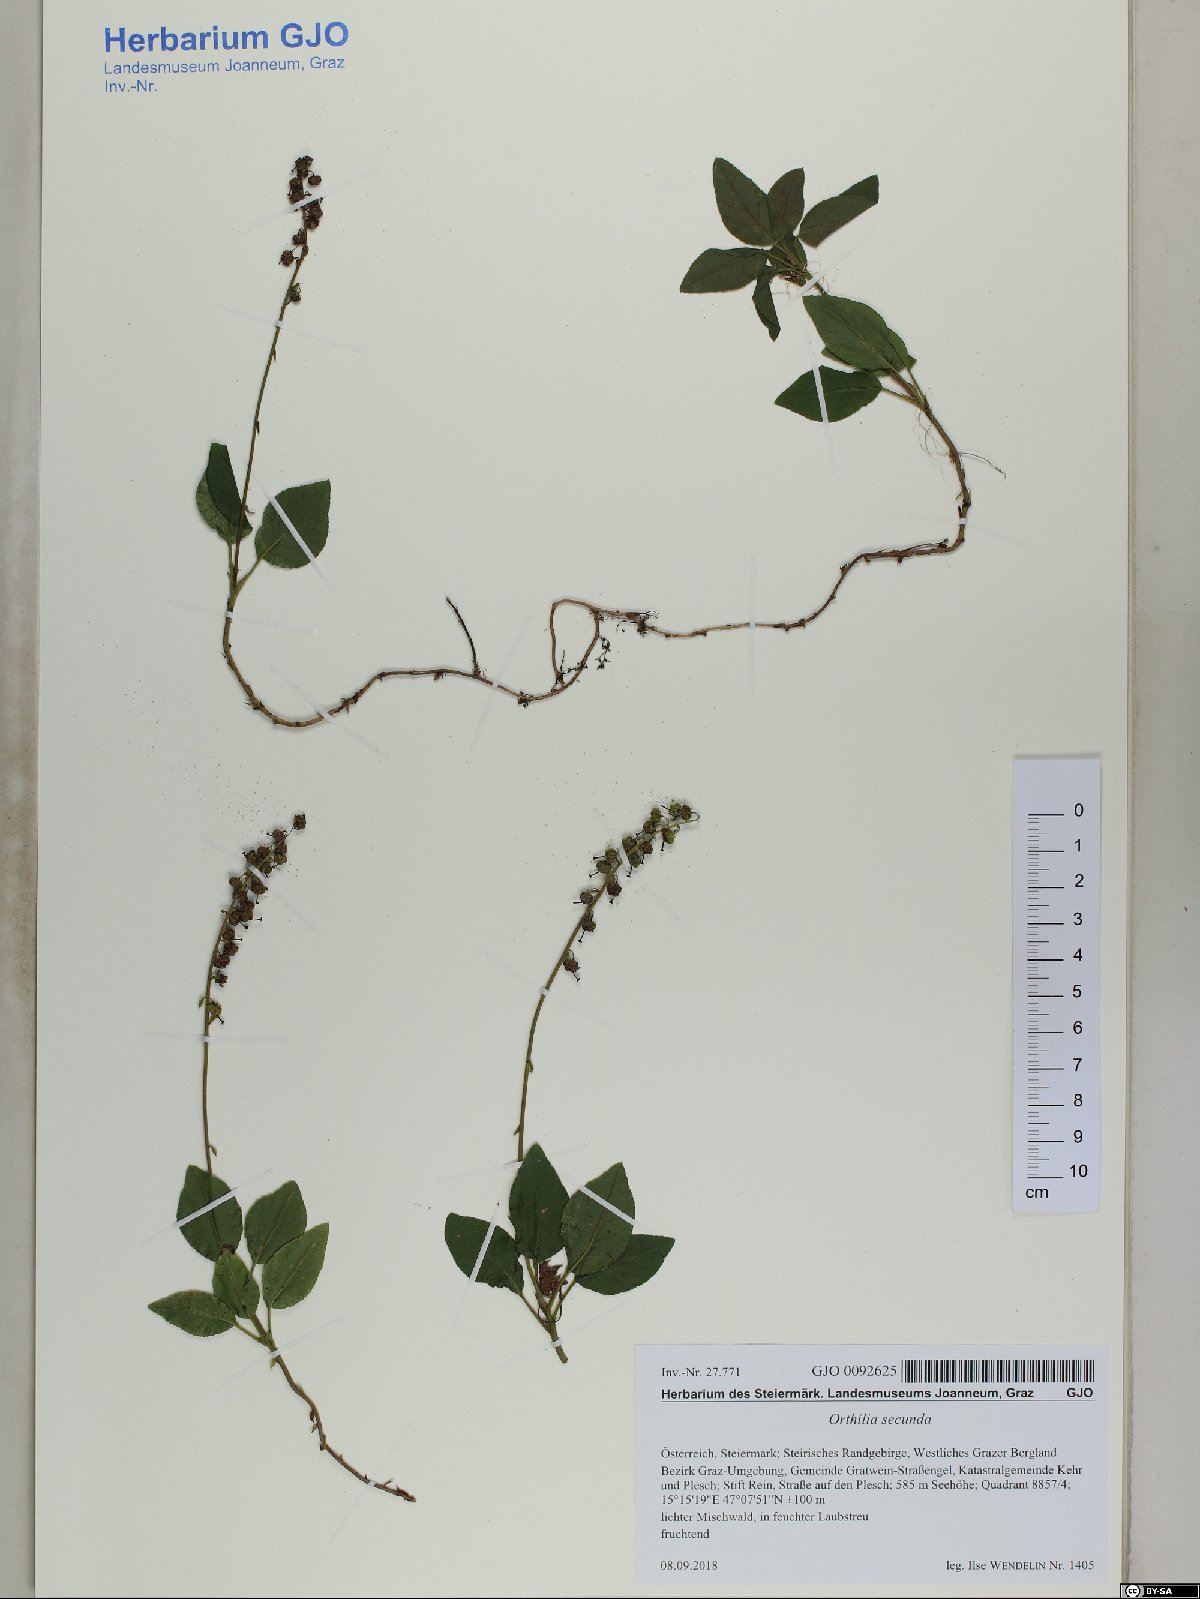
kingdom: Plantae
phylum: Tracheophyta
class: Magnoliopsida
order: Ericales
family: Ericaceae
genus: Orthilia
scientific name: Orthilia secunda
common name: One-sided orthilia
